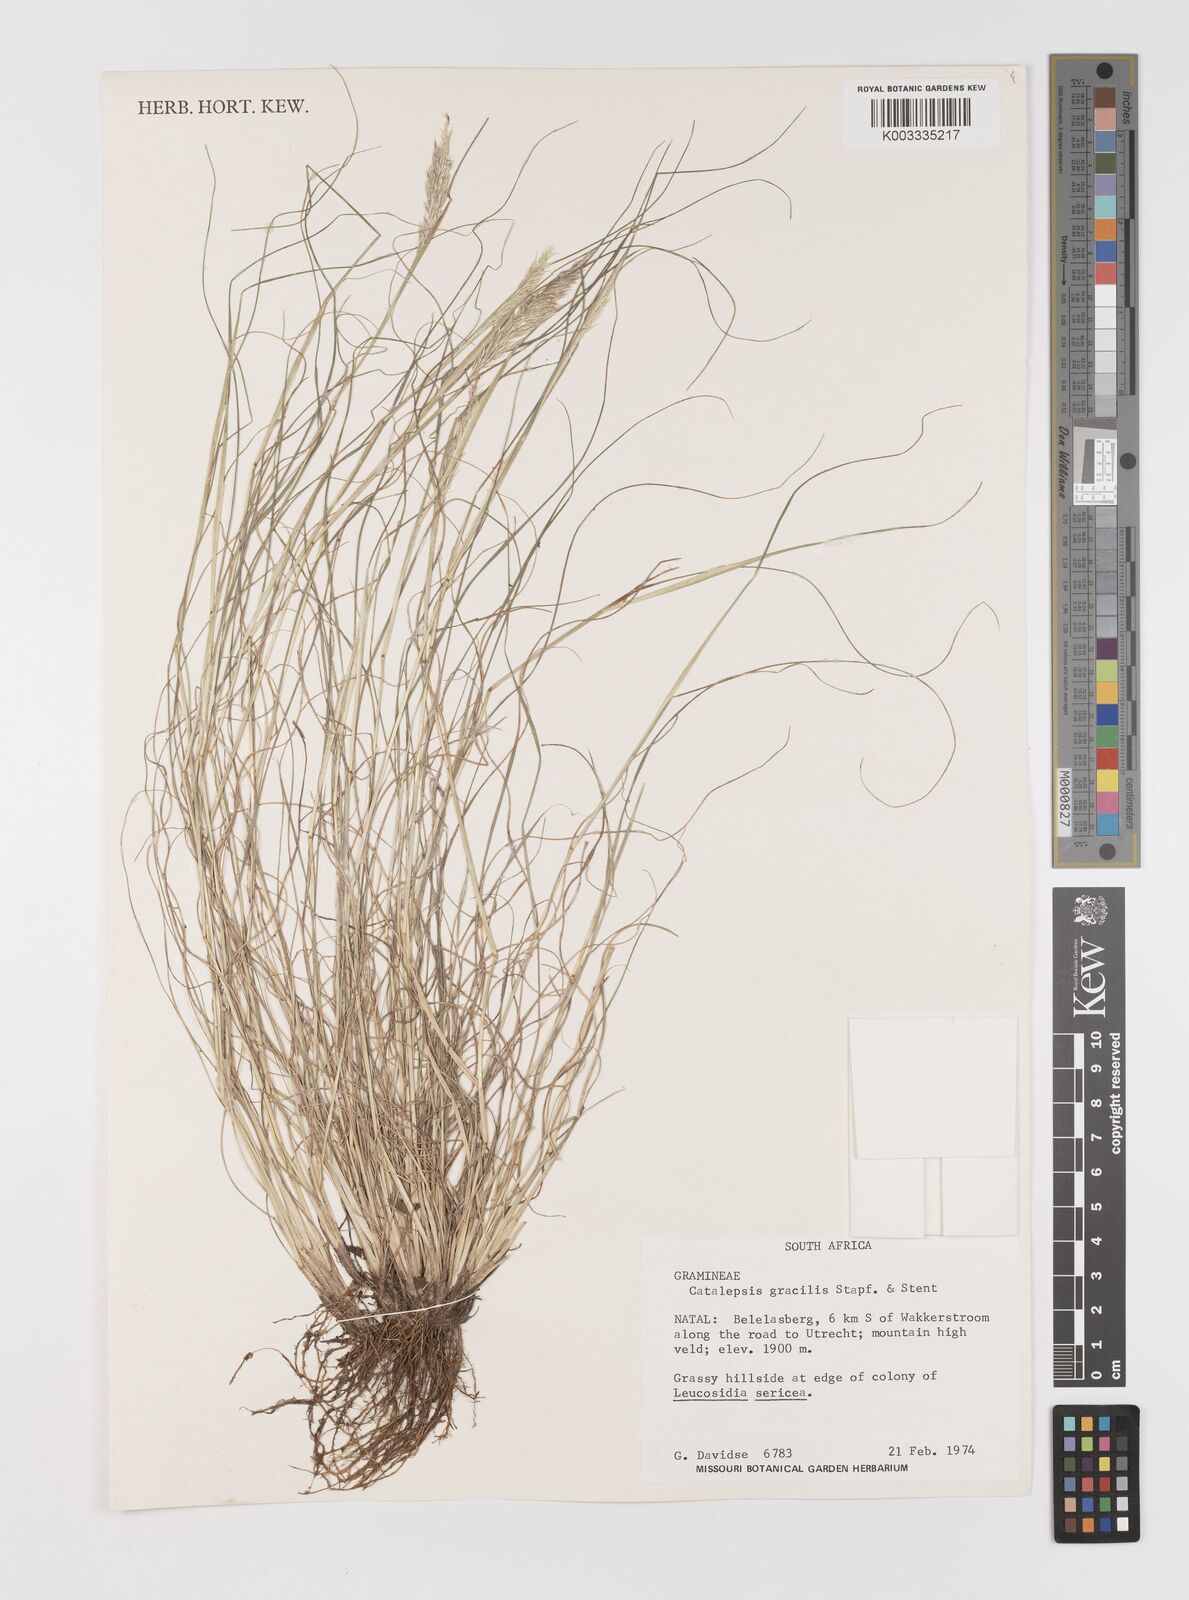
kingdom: Plantae
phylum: Tracheophyta
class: Liliopsida
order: Poales
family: Poaceae
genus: Catalepis
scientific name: Catalepis gracilis
